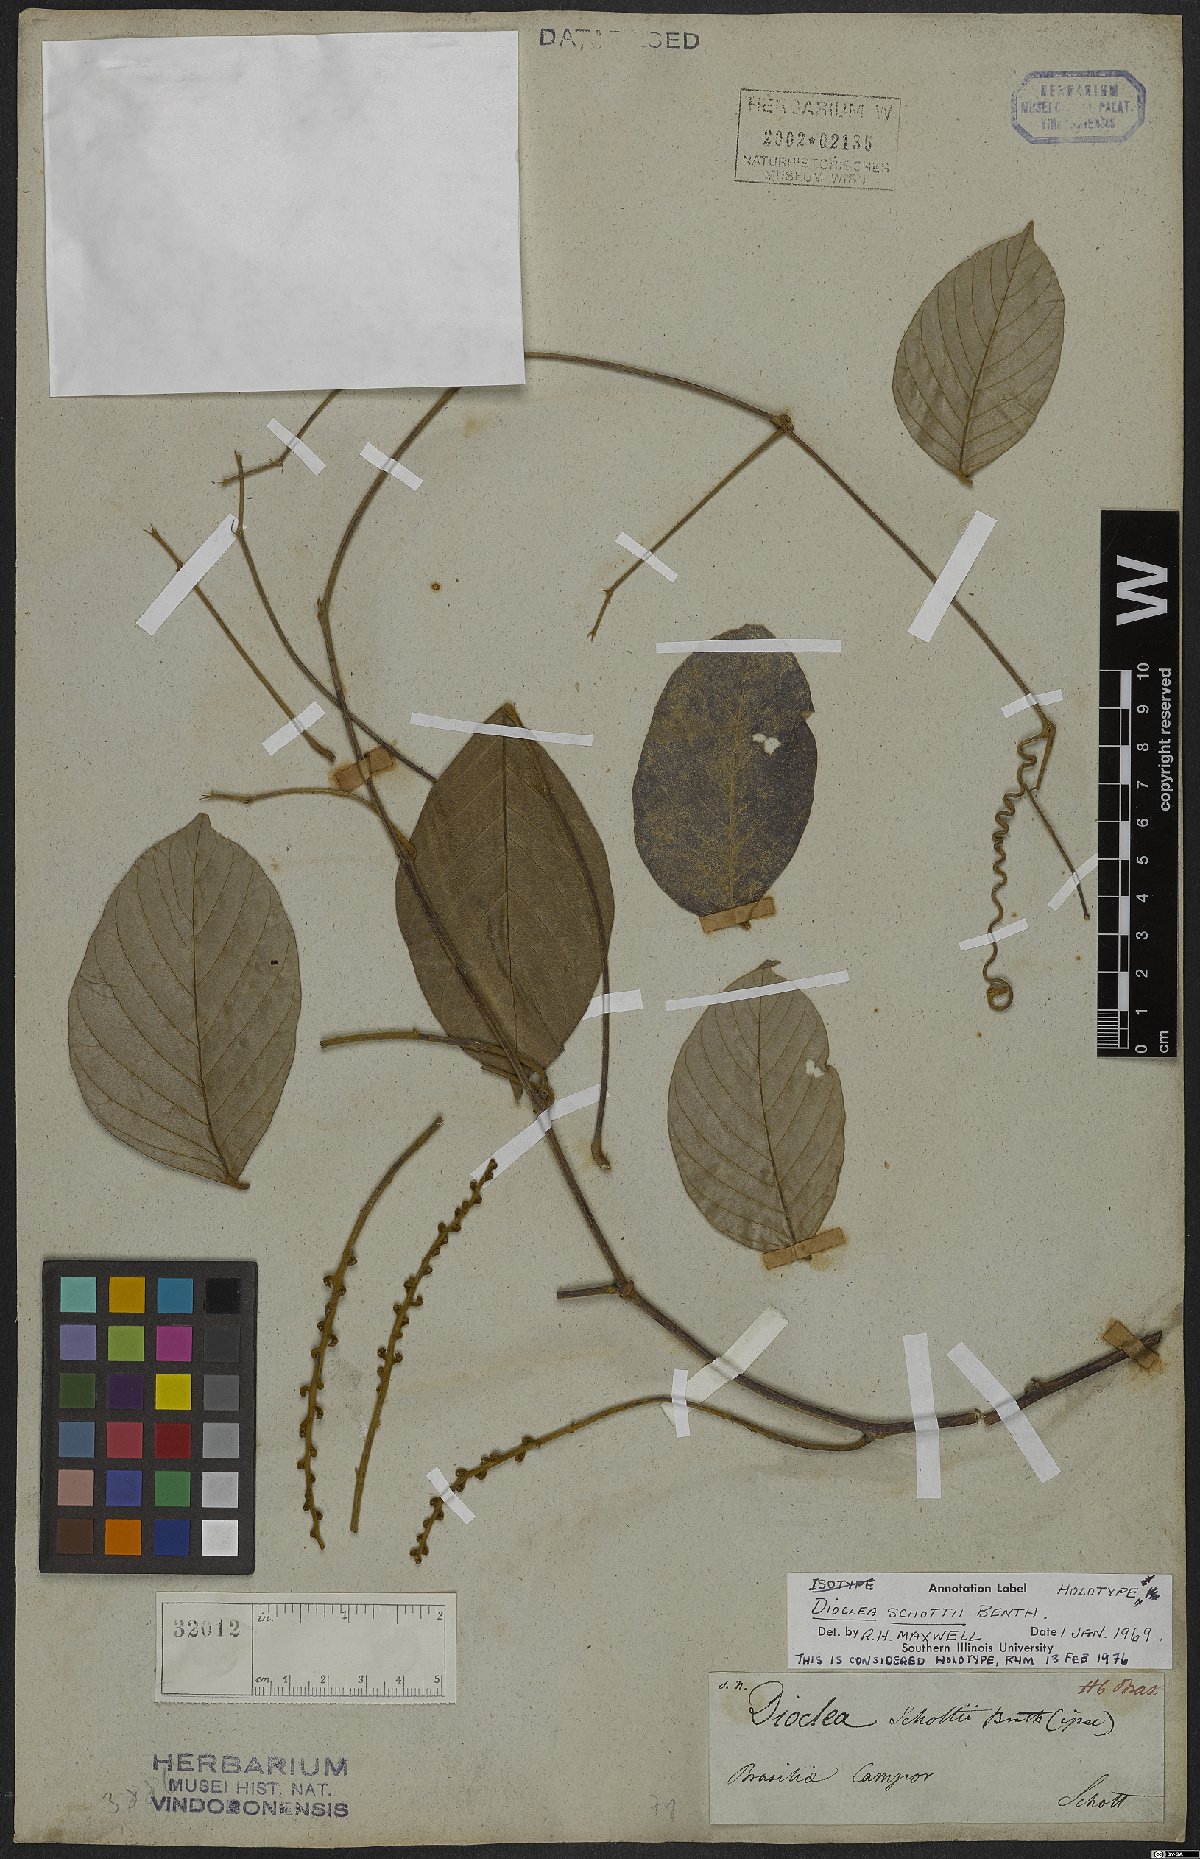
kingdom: Plantae
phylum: Tracheophyta
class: Magnoliopsida
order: Fabales
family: Fabaceae
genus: Macropsychanthus
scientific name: Macropsychanthus schottii
